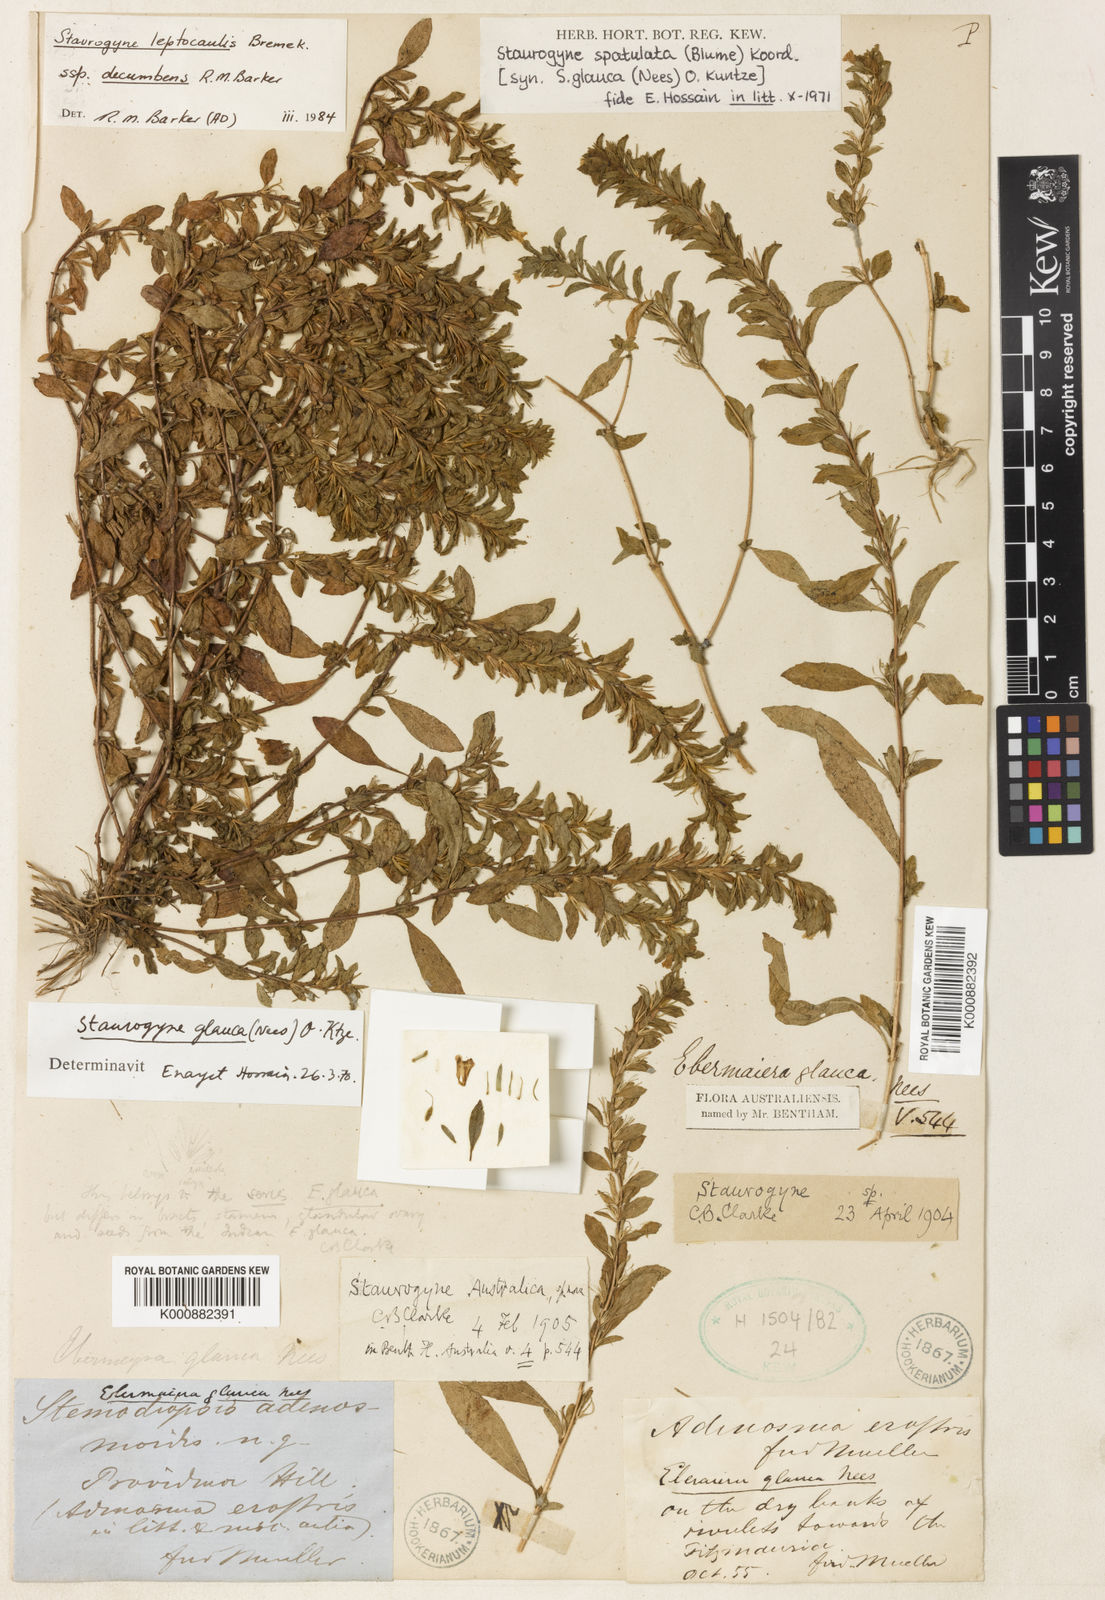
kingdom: Plantae
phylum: Tracheophyta
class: Magnoliopsida
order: Lamiales
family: Acanthaceae
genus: Staurogyne
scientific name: Staurogyne spathulata
